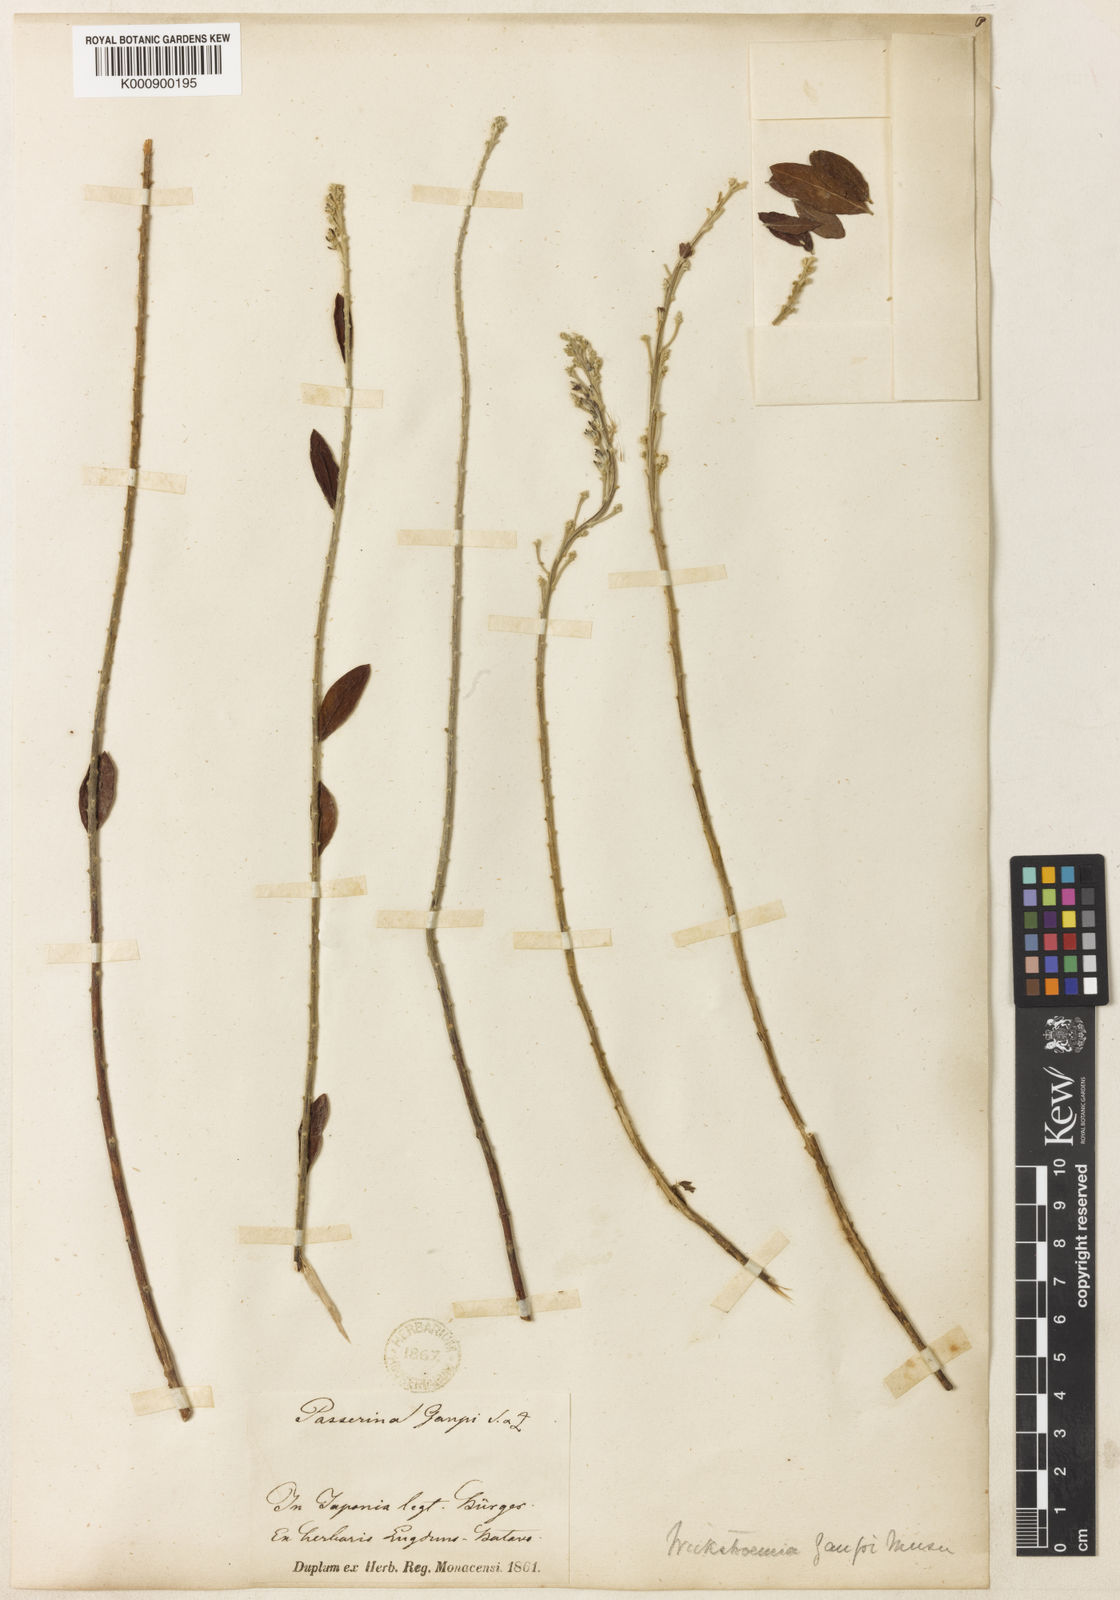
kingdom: Plantae
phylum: Tracheophyta
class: Magnoliopsida
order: Malvales
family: Thymelaeaceae
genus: Wikstroemia
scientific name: Wikstroemia canescens
